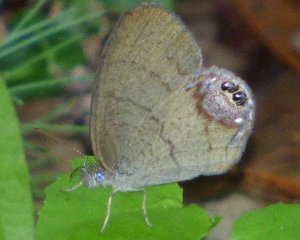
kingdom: Animalia
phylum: Arthropoda
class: Insecta
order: Lepidoptera
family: Nymphalidae
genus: Euptychia
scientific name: Euptychia cornelius
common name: Gemmed Satyr
